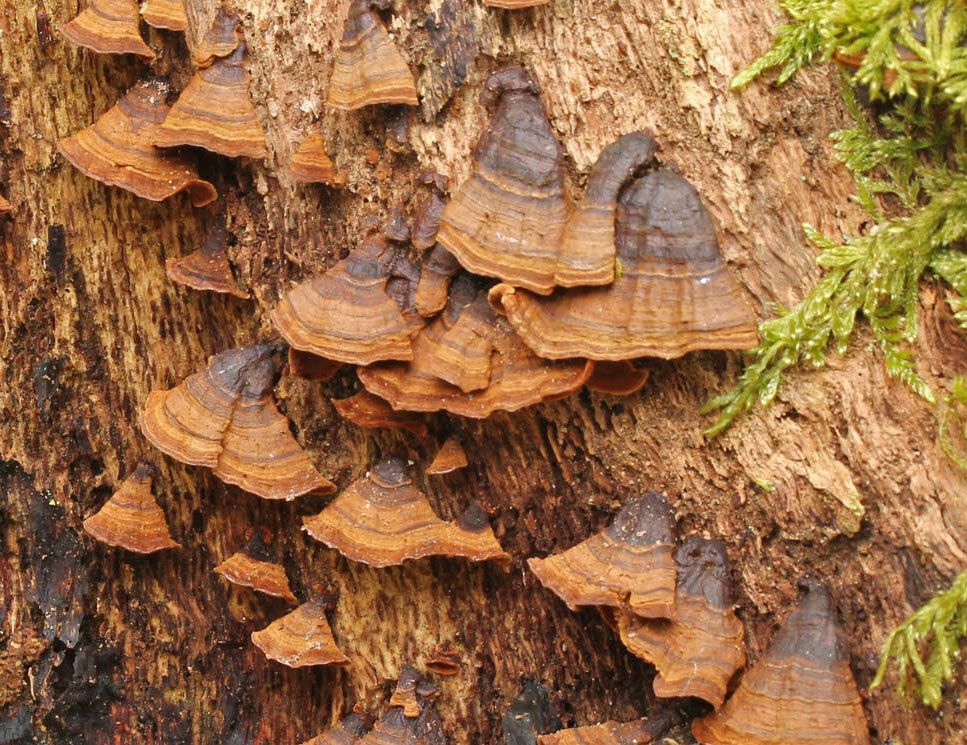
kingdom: Fungi
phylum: Basidiomycota
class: Agaricomycetes
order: Hymenochaetales
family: Hymenochaetaceae
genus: Hymenochaete
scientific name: Hymenochaete rubiginosa
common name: stiv ruslædersvamp
